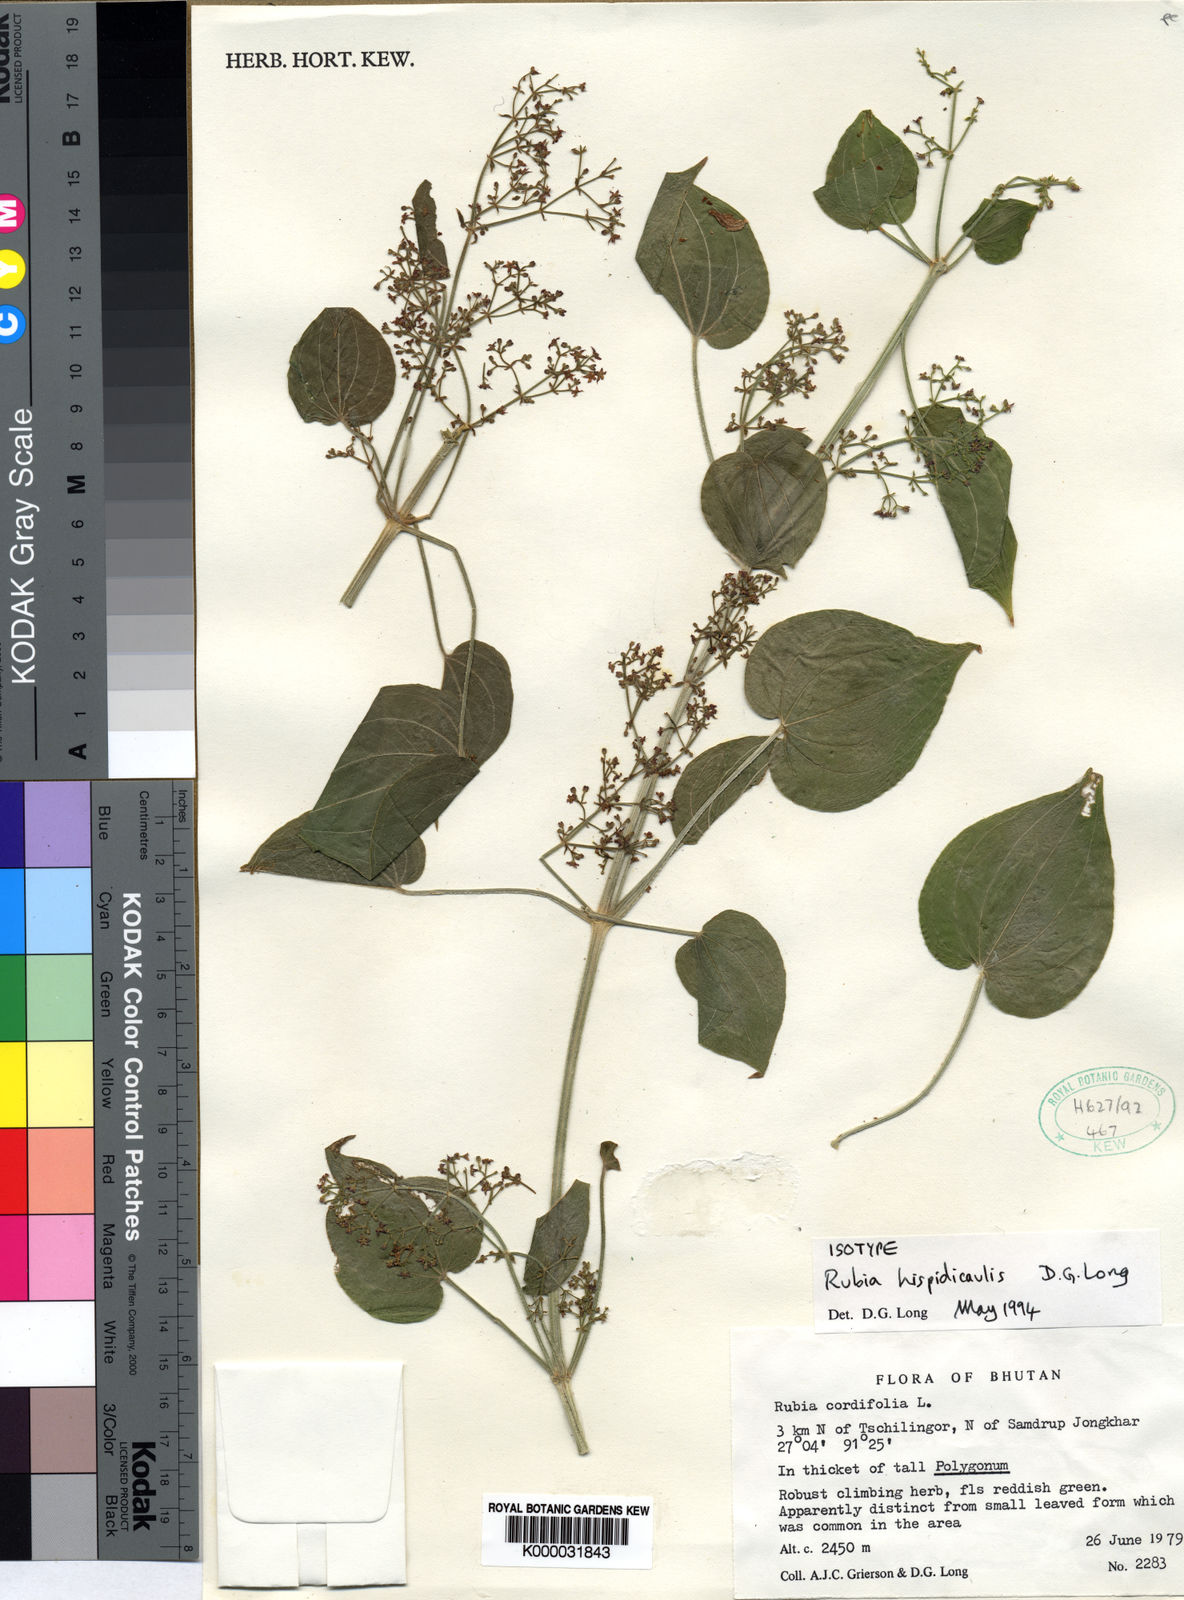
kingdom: Plantae
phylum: Tracheophyta
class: Magnoliopsida
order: Gentianales
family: Rubiaceae
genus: Rubia
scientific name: Rubia hispidicaulis
